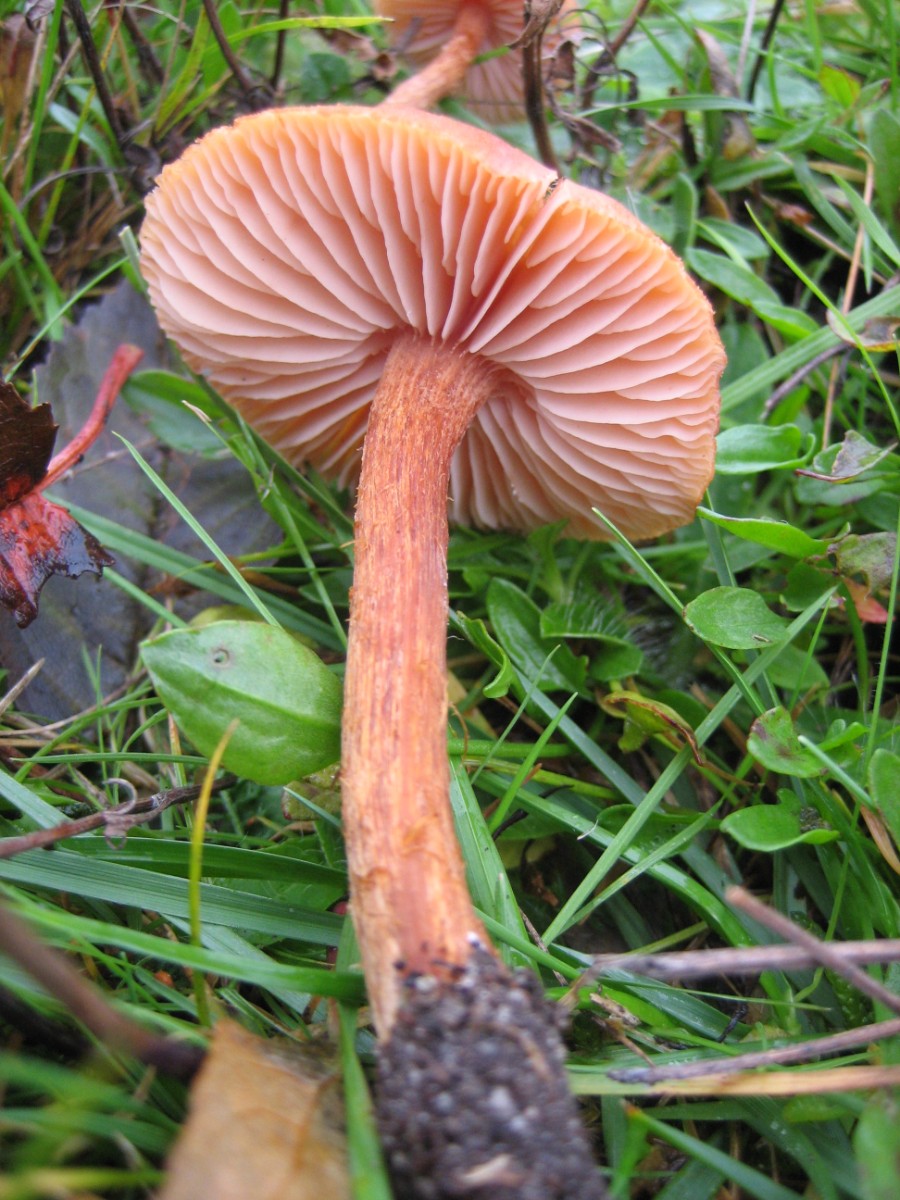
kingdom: Fungi
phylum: Basidiomycota
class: Agaricomycetes
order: Agaricales
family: Hydnangiaceae
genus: Laccaria
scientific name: Laccaria proxima
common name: stor ametysthat
